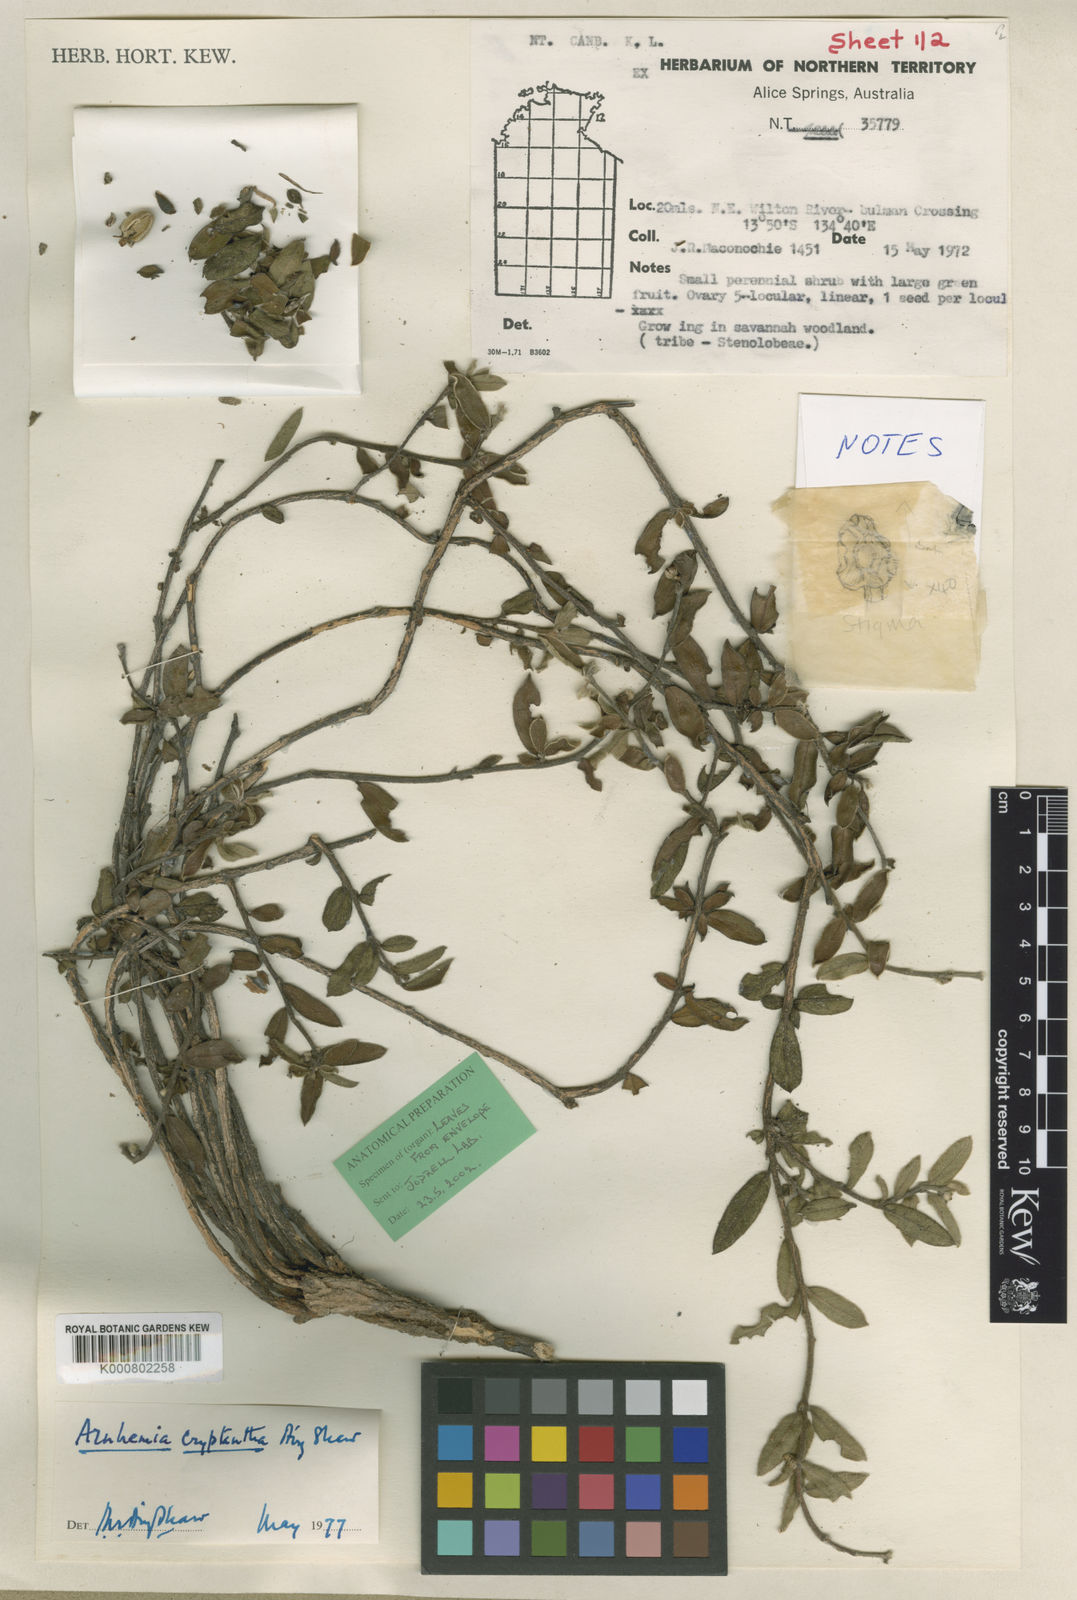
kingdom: Plantae
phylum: Tracheophyta
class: Magnoliopsida
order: Malvales
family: Thymelaeaceae
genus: Arnhemia
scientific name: Arnhemia cryptantha
